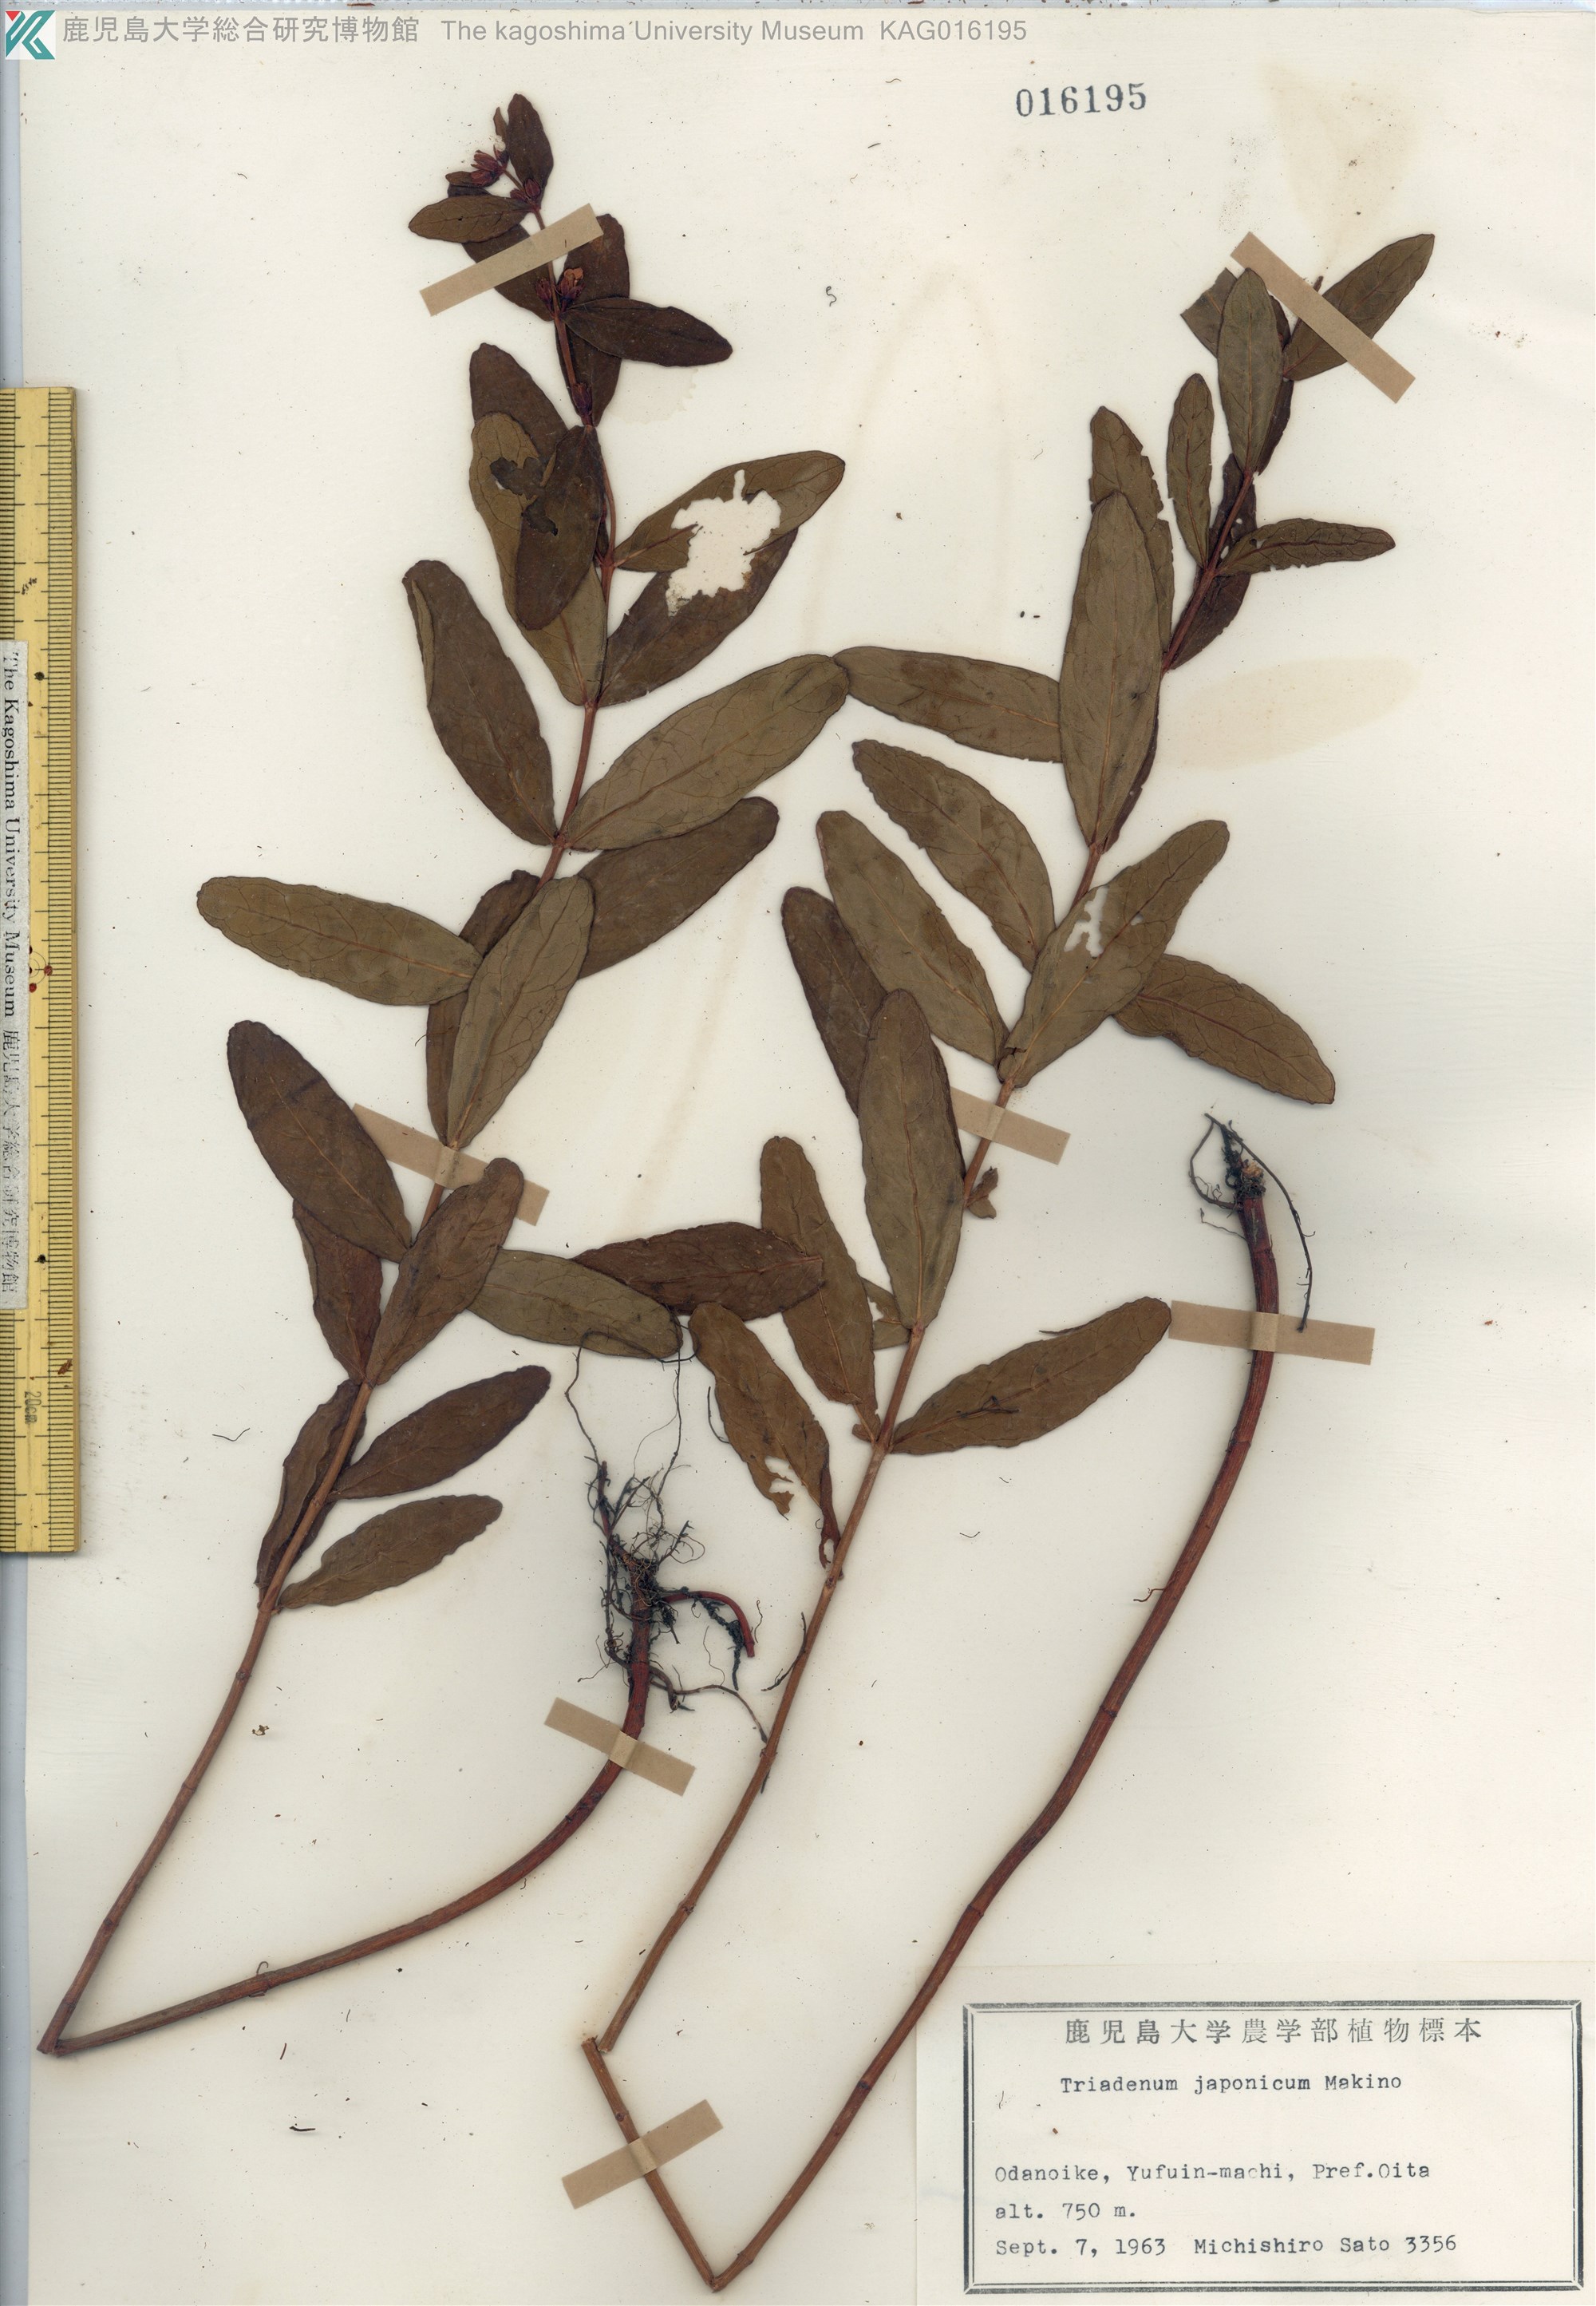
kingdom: Plantae
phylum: Tracheophyta
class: Magnoliopsida
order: Malpighiales
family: Hypericaceae
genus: Triadenum
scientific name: Triadenum japonicum
